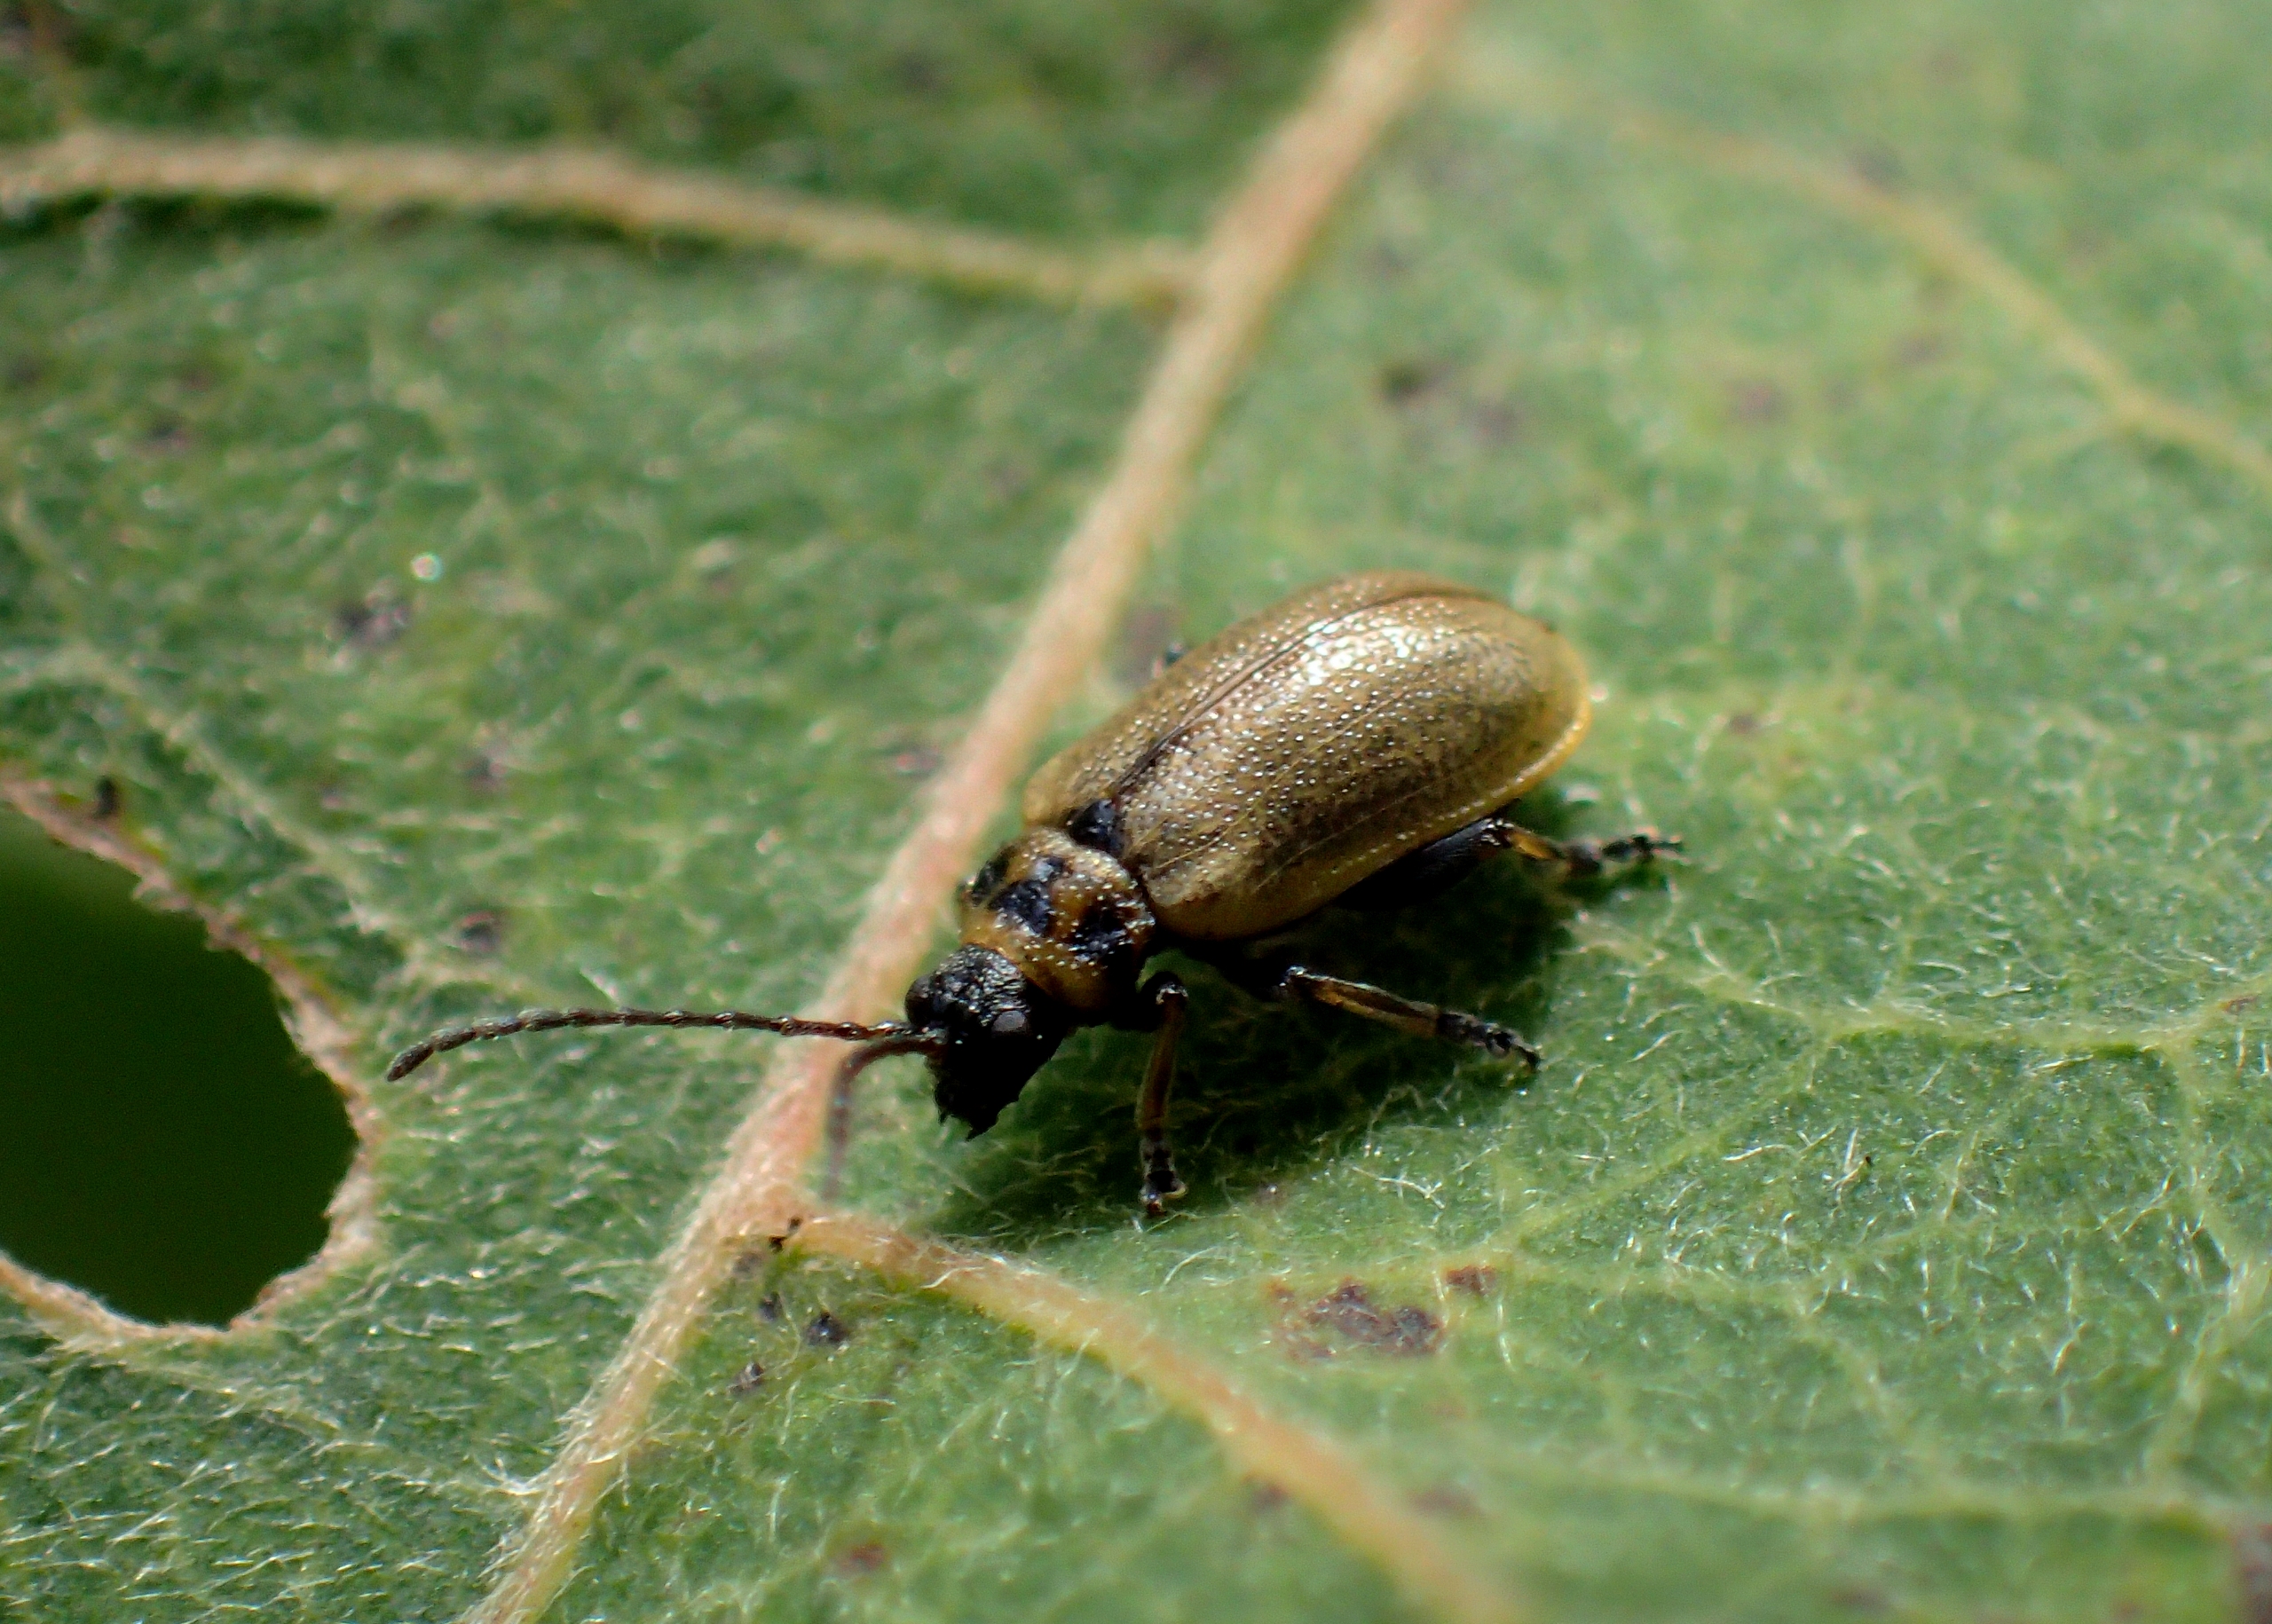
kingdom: Animalia
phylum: Arthropoda
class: Insecta
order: Coleoptera
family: Chrysomelidae
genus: Lochmaea
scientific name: Lochmaea caprea
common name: Rødbrun birkebladbille
